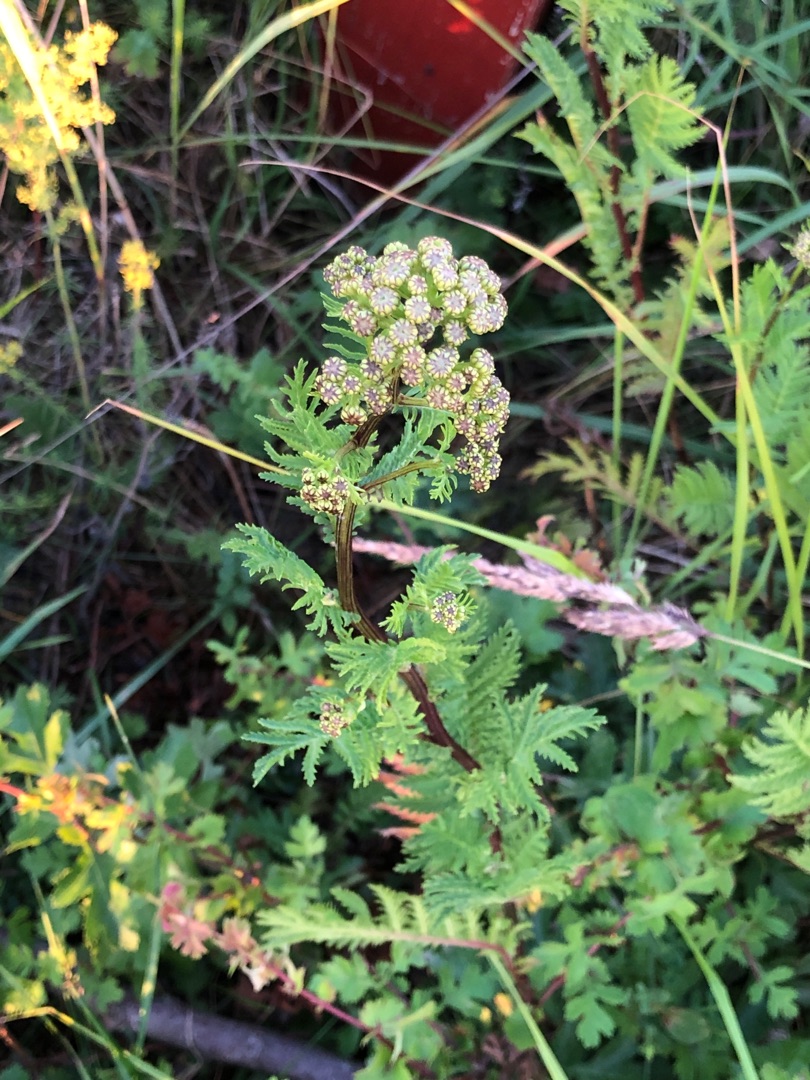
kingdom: Plantae
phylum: Tracheophyta
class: Magnoliopsida
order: Asterales
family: Asteraceae
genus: Tanacetum
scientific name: Tanacetum vulgare
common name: Rejnfan
